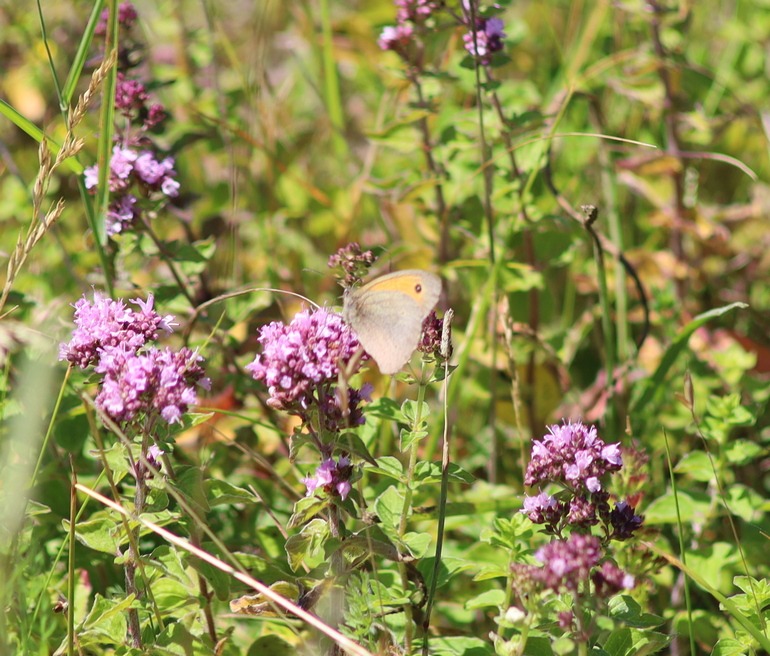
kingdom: Animalia
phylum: Arthropoda
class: Insecta
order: Lepidoptera
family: Nymphalidae
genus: Maniola
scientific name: Maniola jurtina
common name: Græsrandøje
